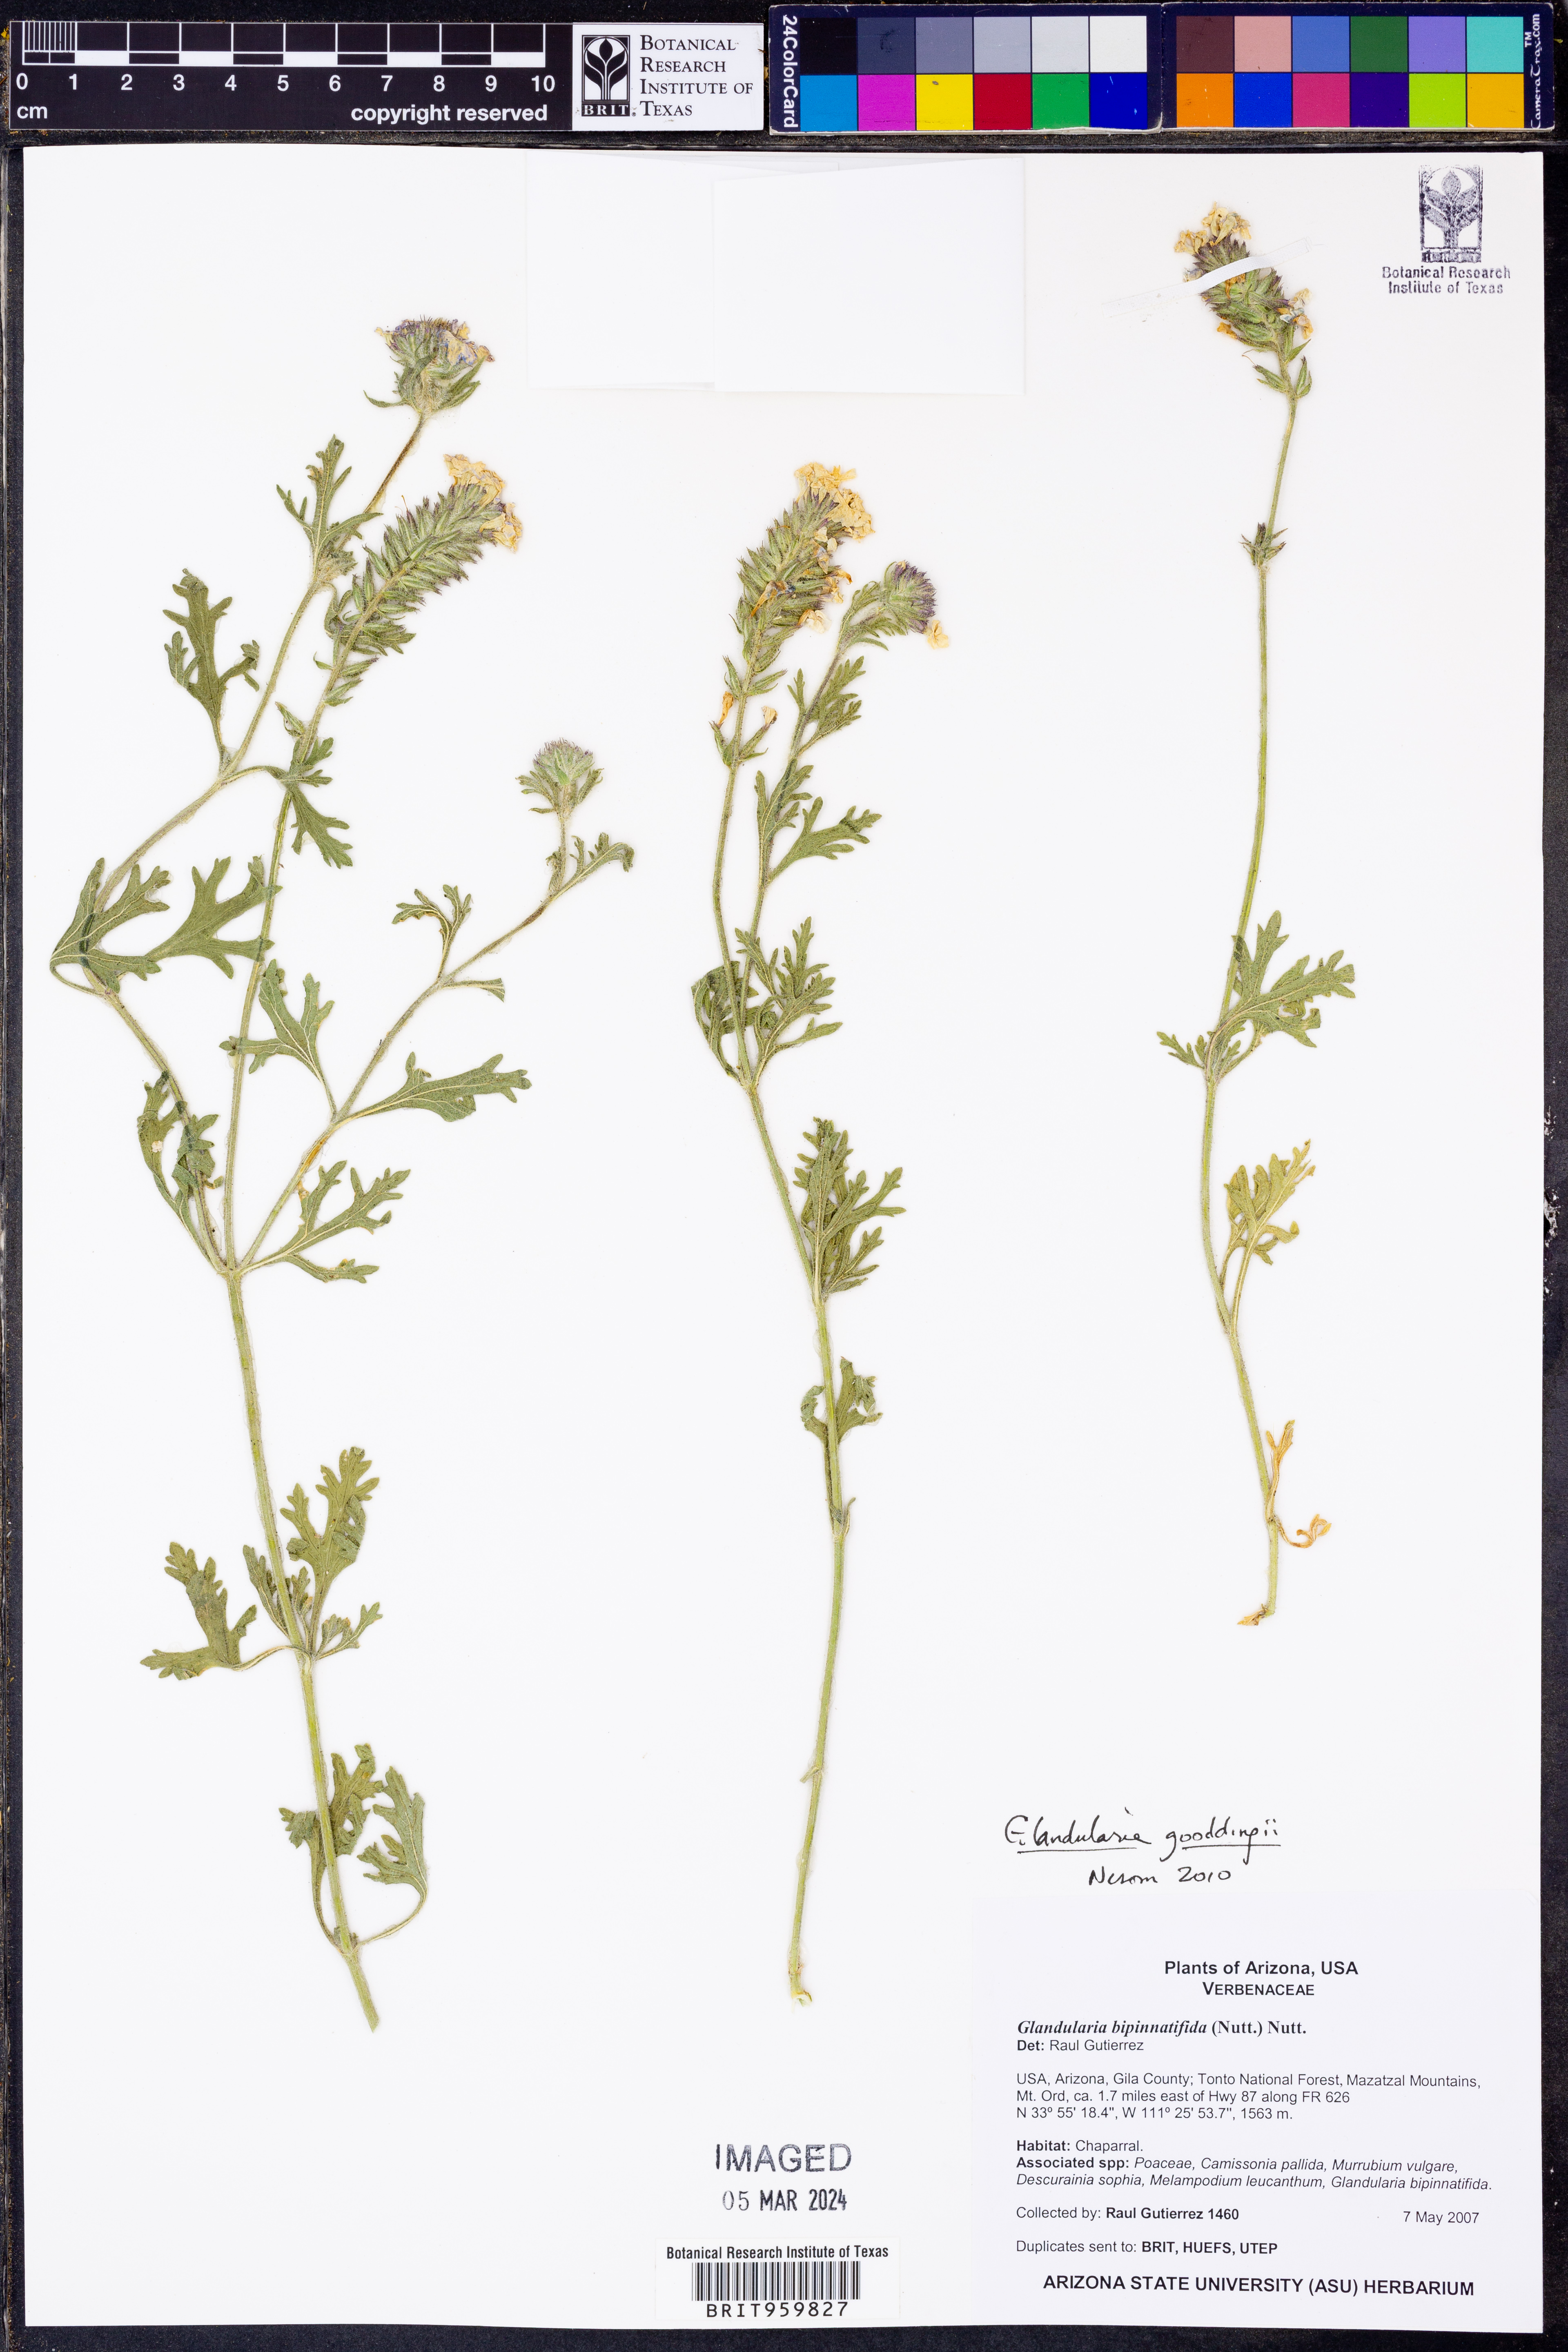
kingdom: Plantae
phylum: Tracheophyta
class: Magnoliopsida
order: Lamiales
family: Verbenaceae
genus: Verbena
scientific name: Verbena gooddingii
